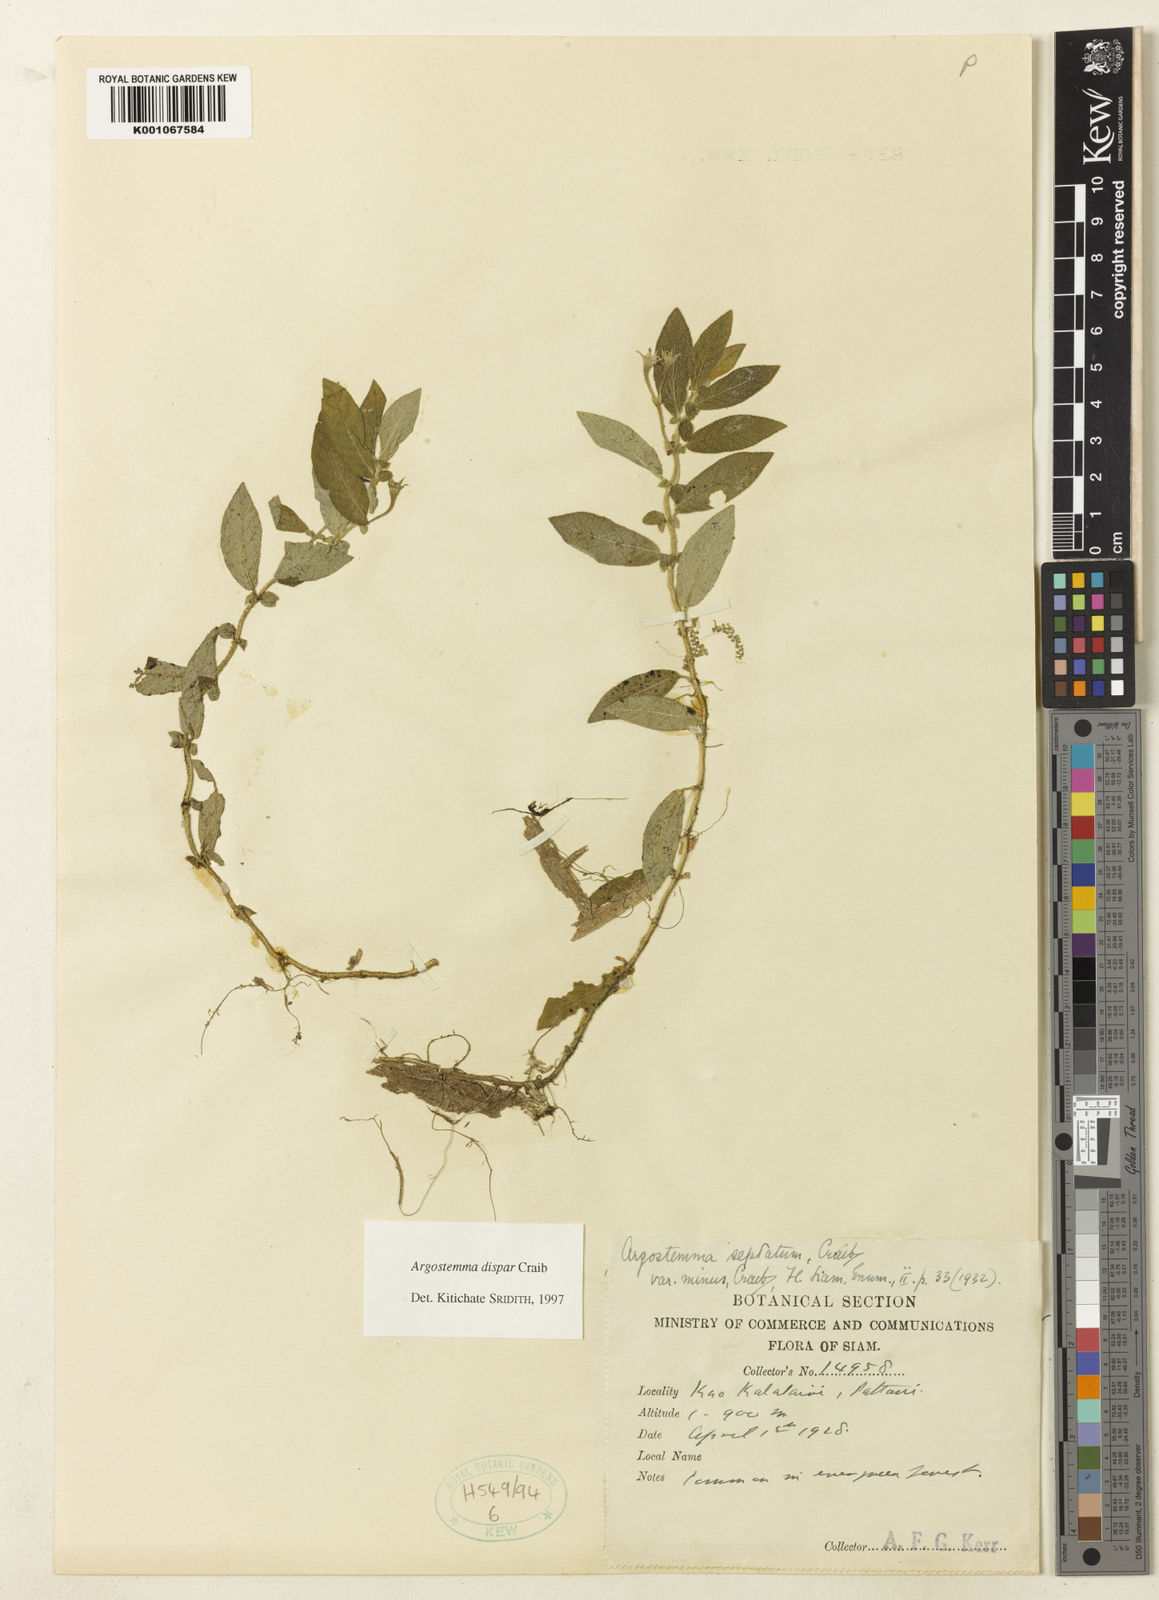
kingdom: Plantae
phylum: Tracheophyta
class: Magnoliopsida
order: Gentianales
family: Rubiaceae
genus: Argostemma
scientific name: Argostemma dispar
